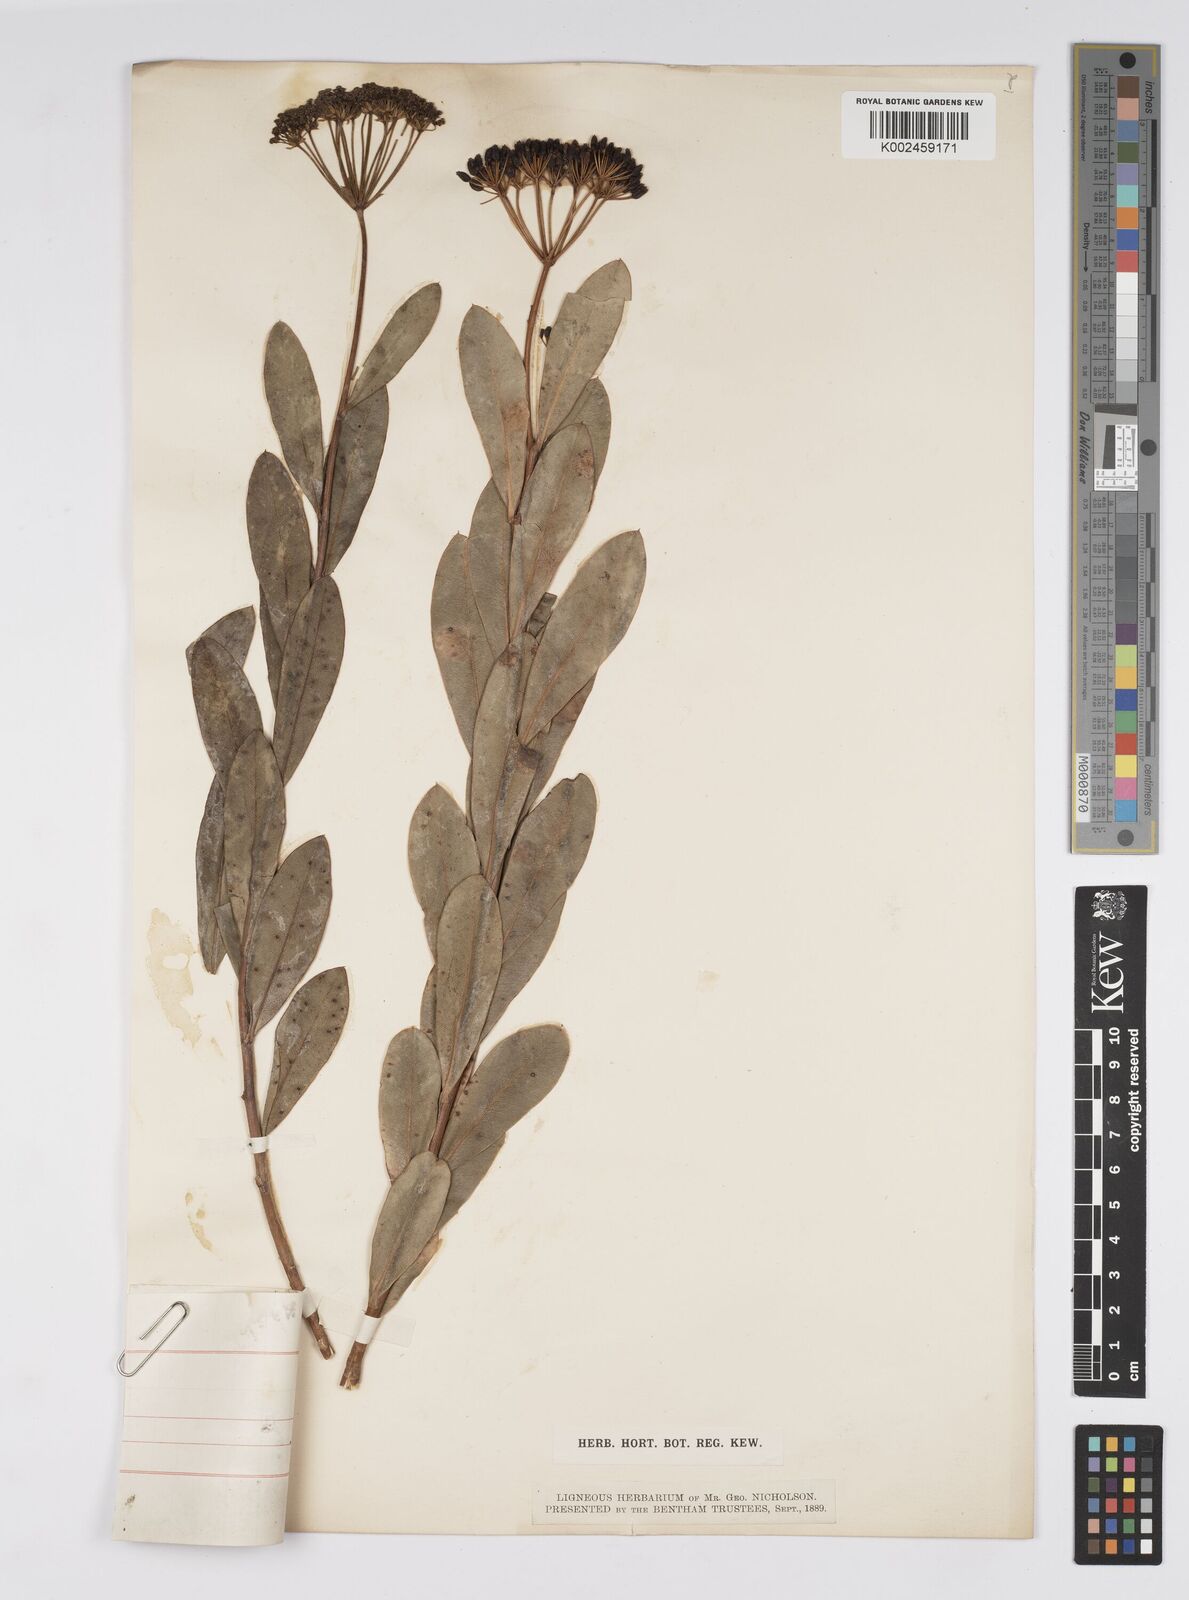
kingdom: Plantae
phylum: Tracheophyta
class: Magnoliopsida
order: Apiales
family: Apiaceae
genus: Bupleurum
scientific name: Bupleurum fruticosum
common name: Shrubby hare's-ear
